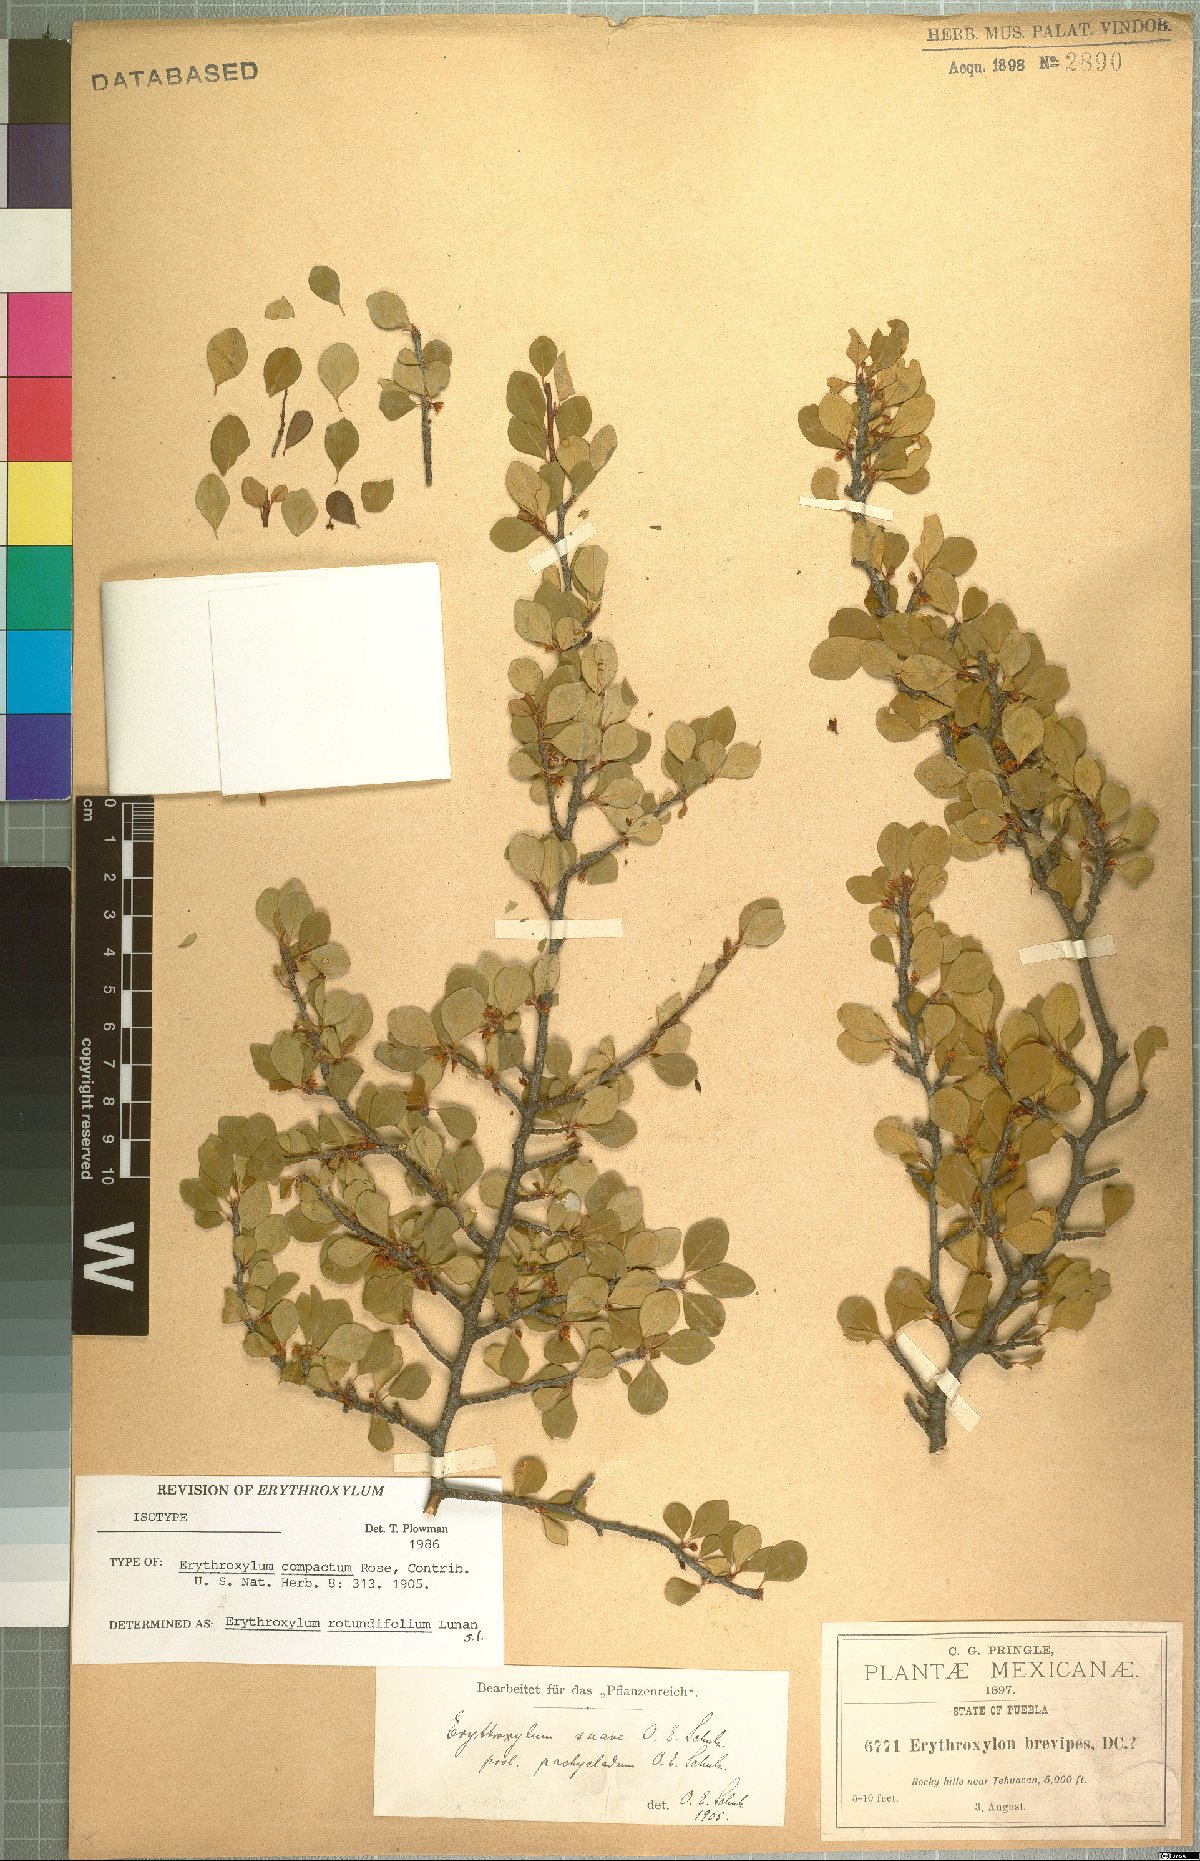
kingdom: Plantae
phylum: Tracheophyta
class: Magnoliopsida
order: Malpighiales
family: Erythroxylaceae
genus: Erythroxylum
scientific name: Erythroxylum rotundifolium
